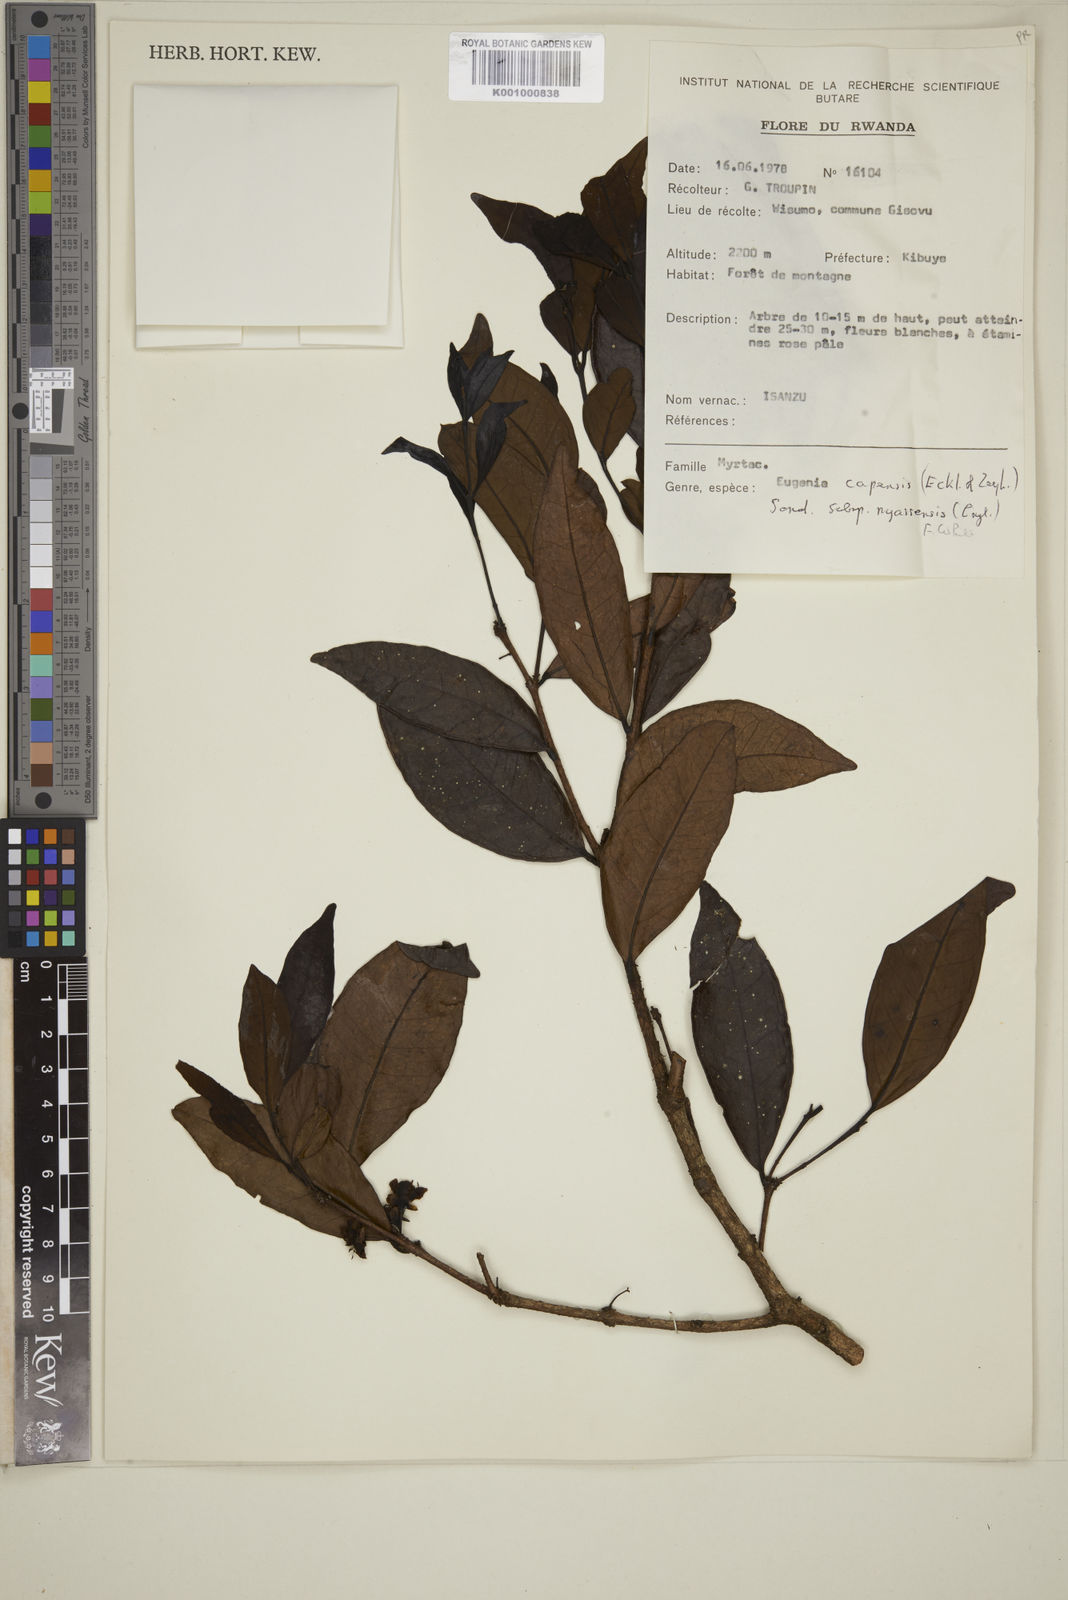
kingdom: Plantae
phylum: Tracheophyta
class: Magnoliopsida
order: Myrtales
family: Myrtaceae
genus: Eugenia
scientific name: Eugenia capensis
